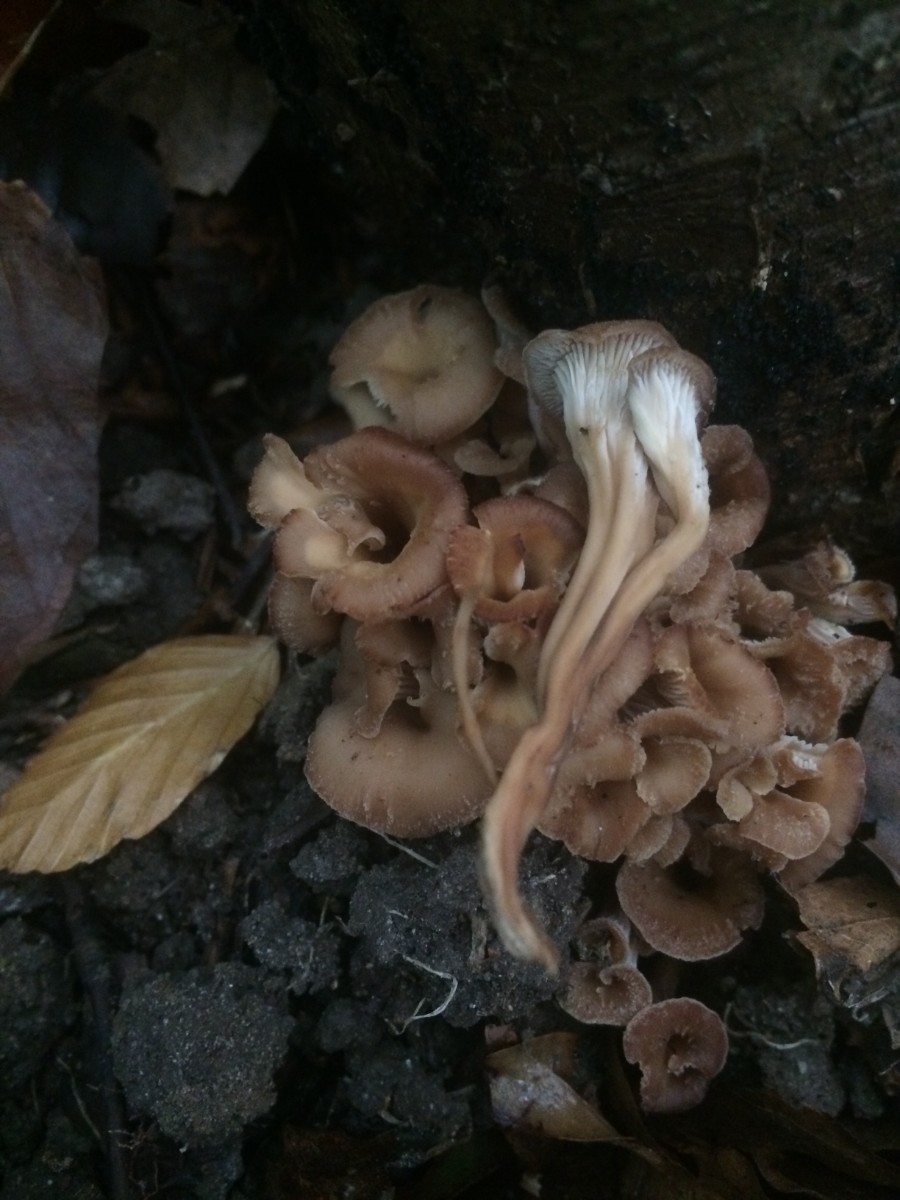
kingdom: Fungi
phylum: Basidiomycota
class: Agaricomycetes
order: Russulales
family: Auriscalpiaceae
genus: Lentinellus
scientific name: Lentinellus cochleatus
